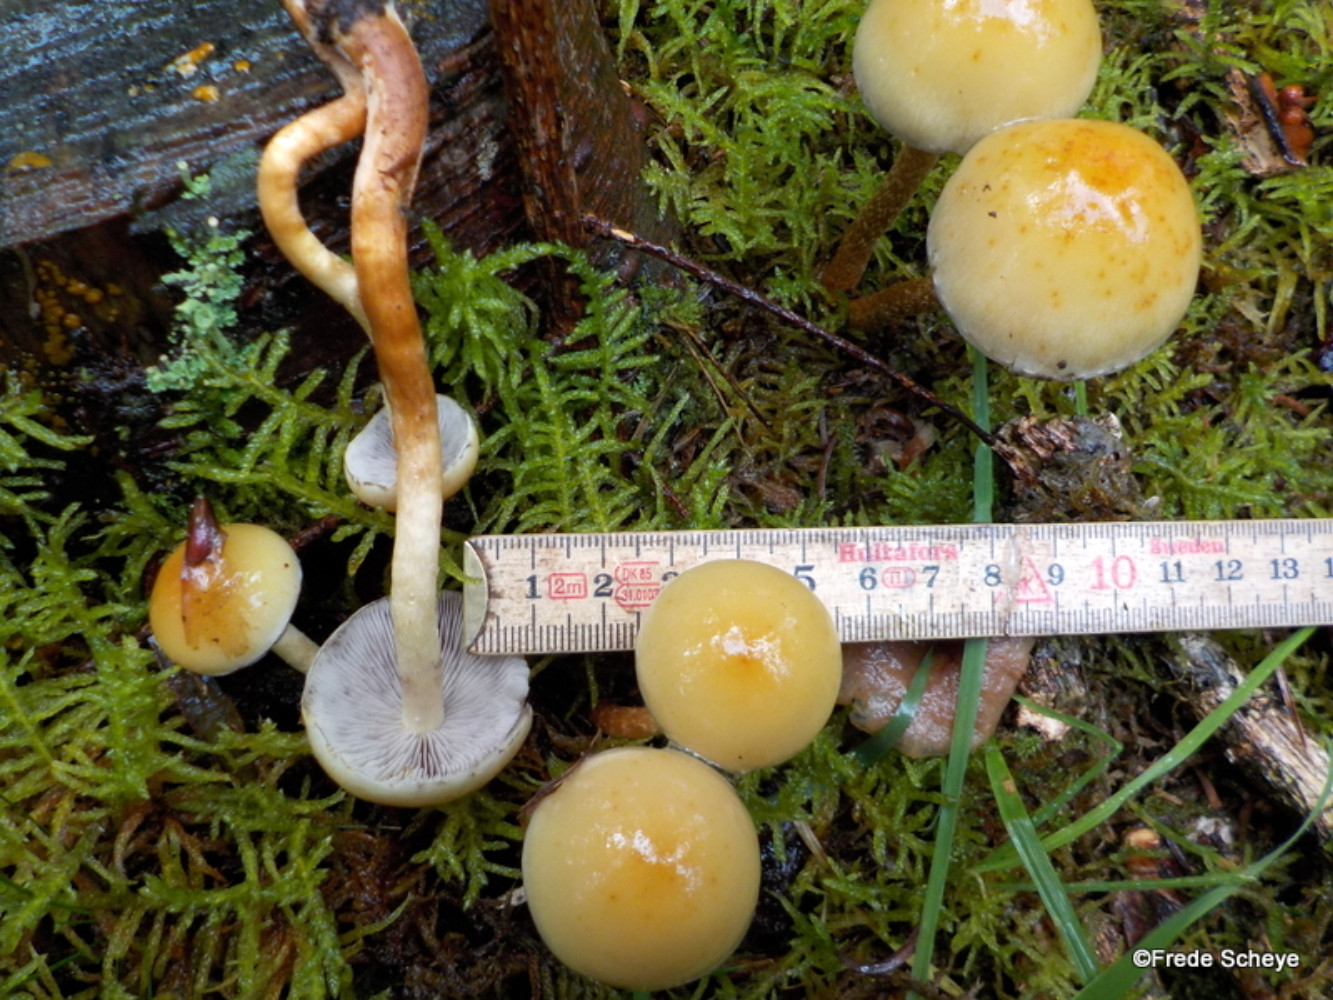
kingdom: Fungi
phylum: Basidiomycota
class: Agaricomycetes
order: Agaricales
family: Strophariaceae
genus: Hypholoma
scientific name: Hypholoma capnoides
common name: gran-svovlhat
